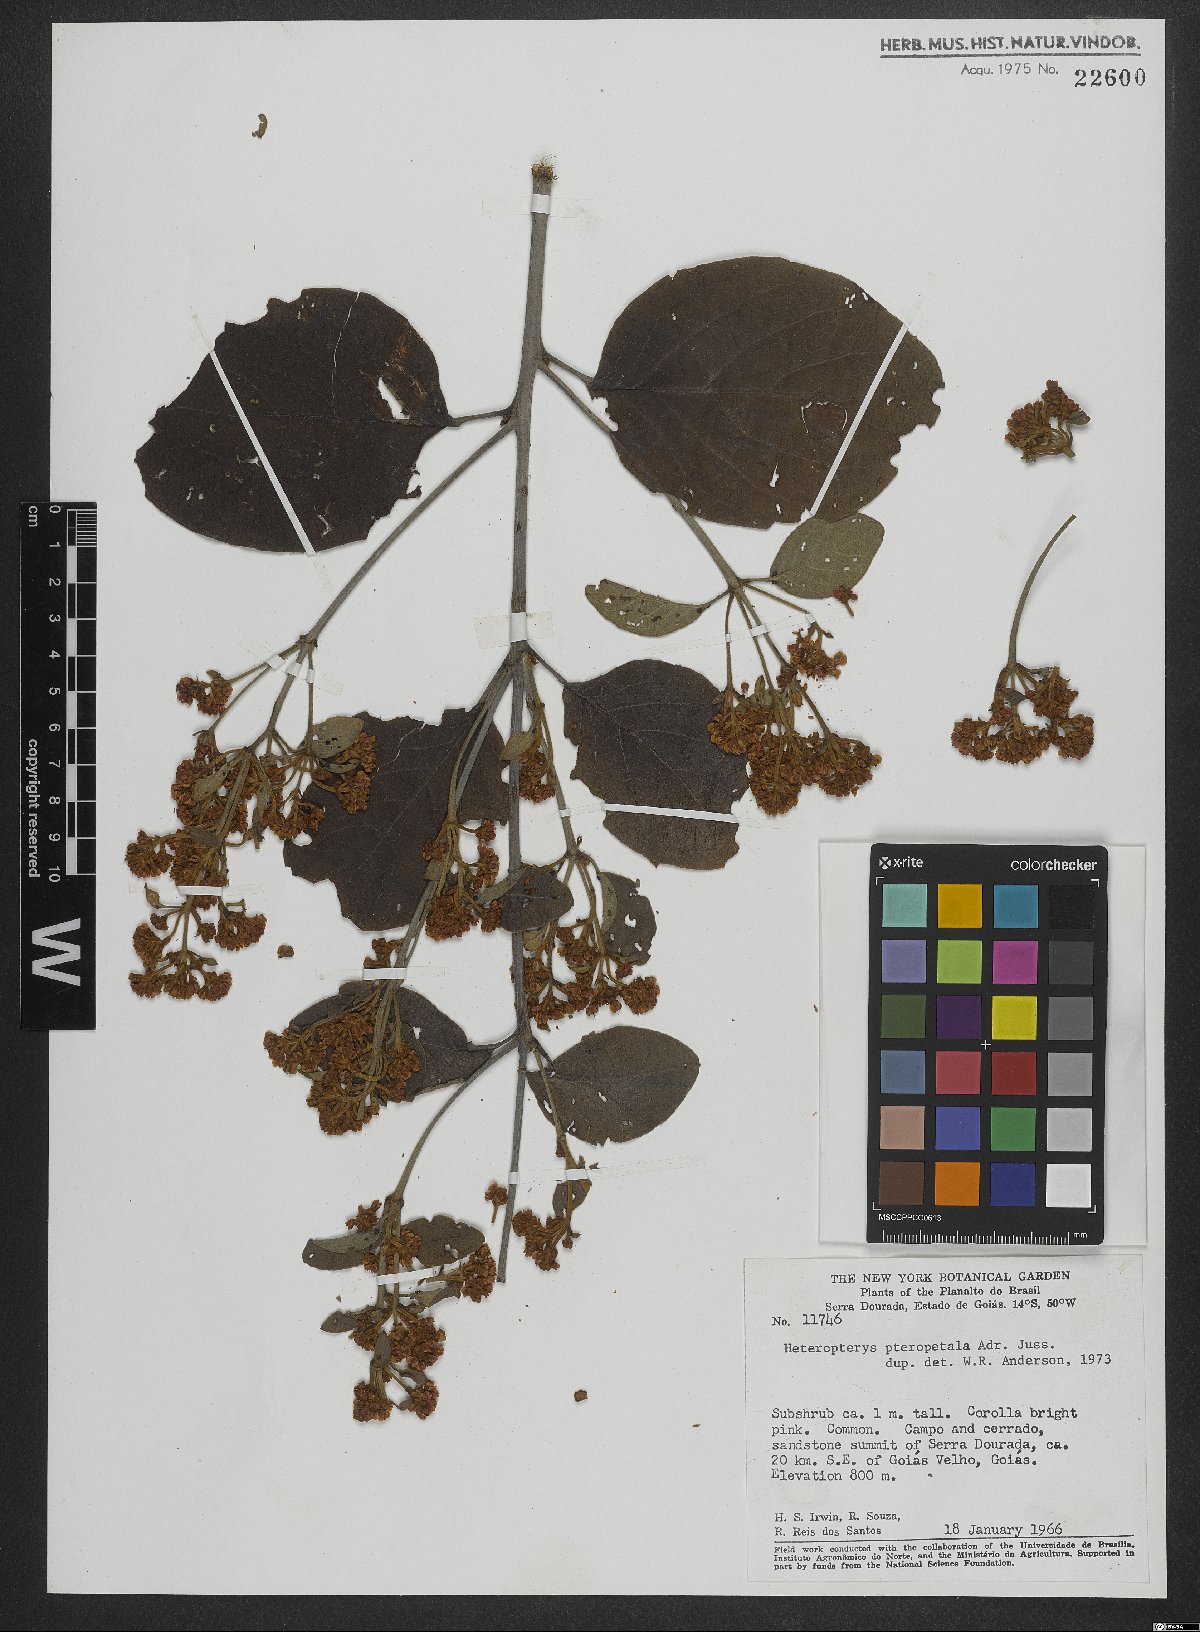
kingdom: Plantae
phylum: Tracheophyta
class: Magnoliopsida
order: Malpighiales
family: Malpighiaceae
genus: Heteropterys
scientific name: Heteropterys pteropetala
